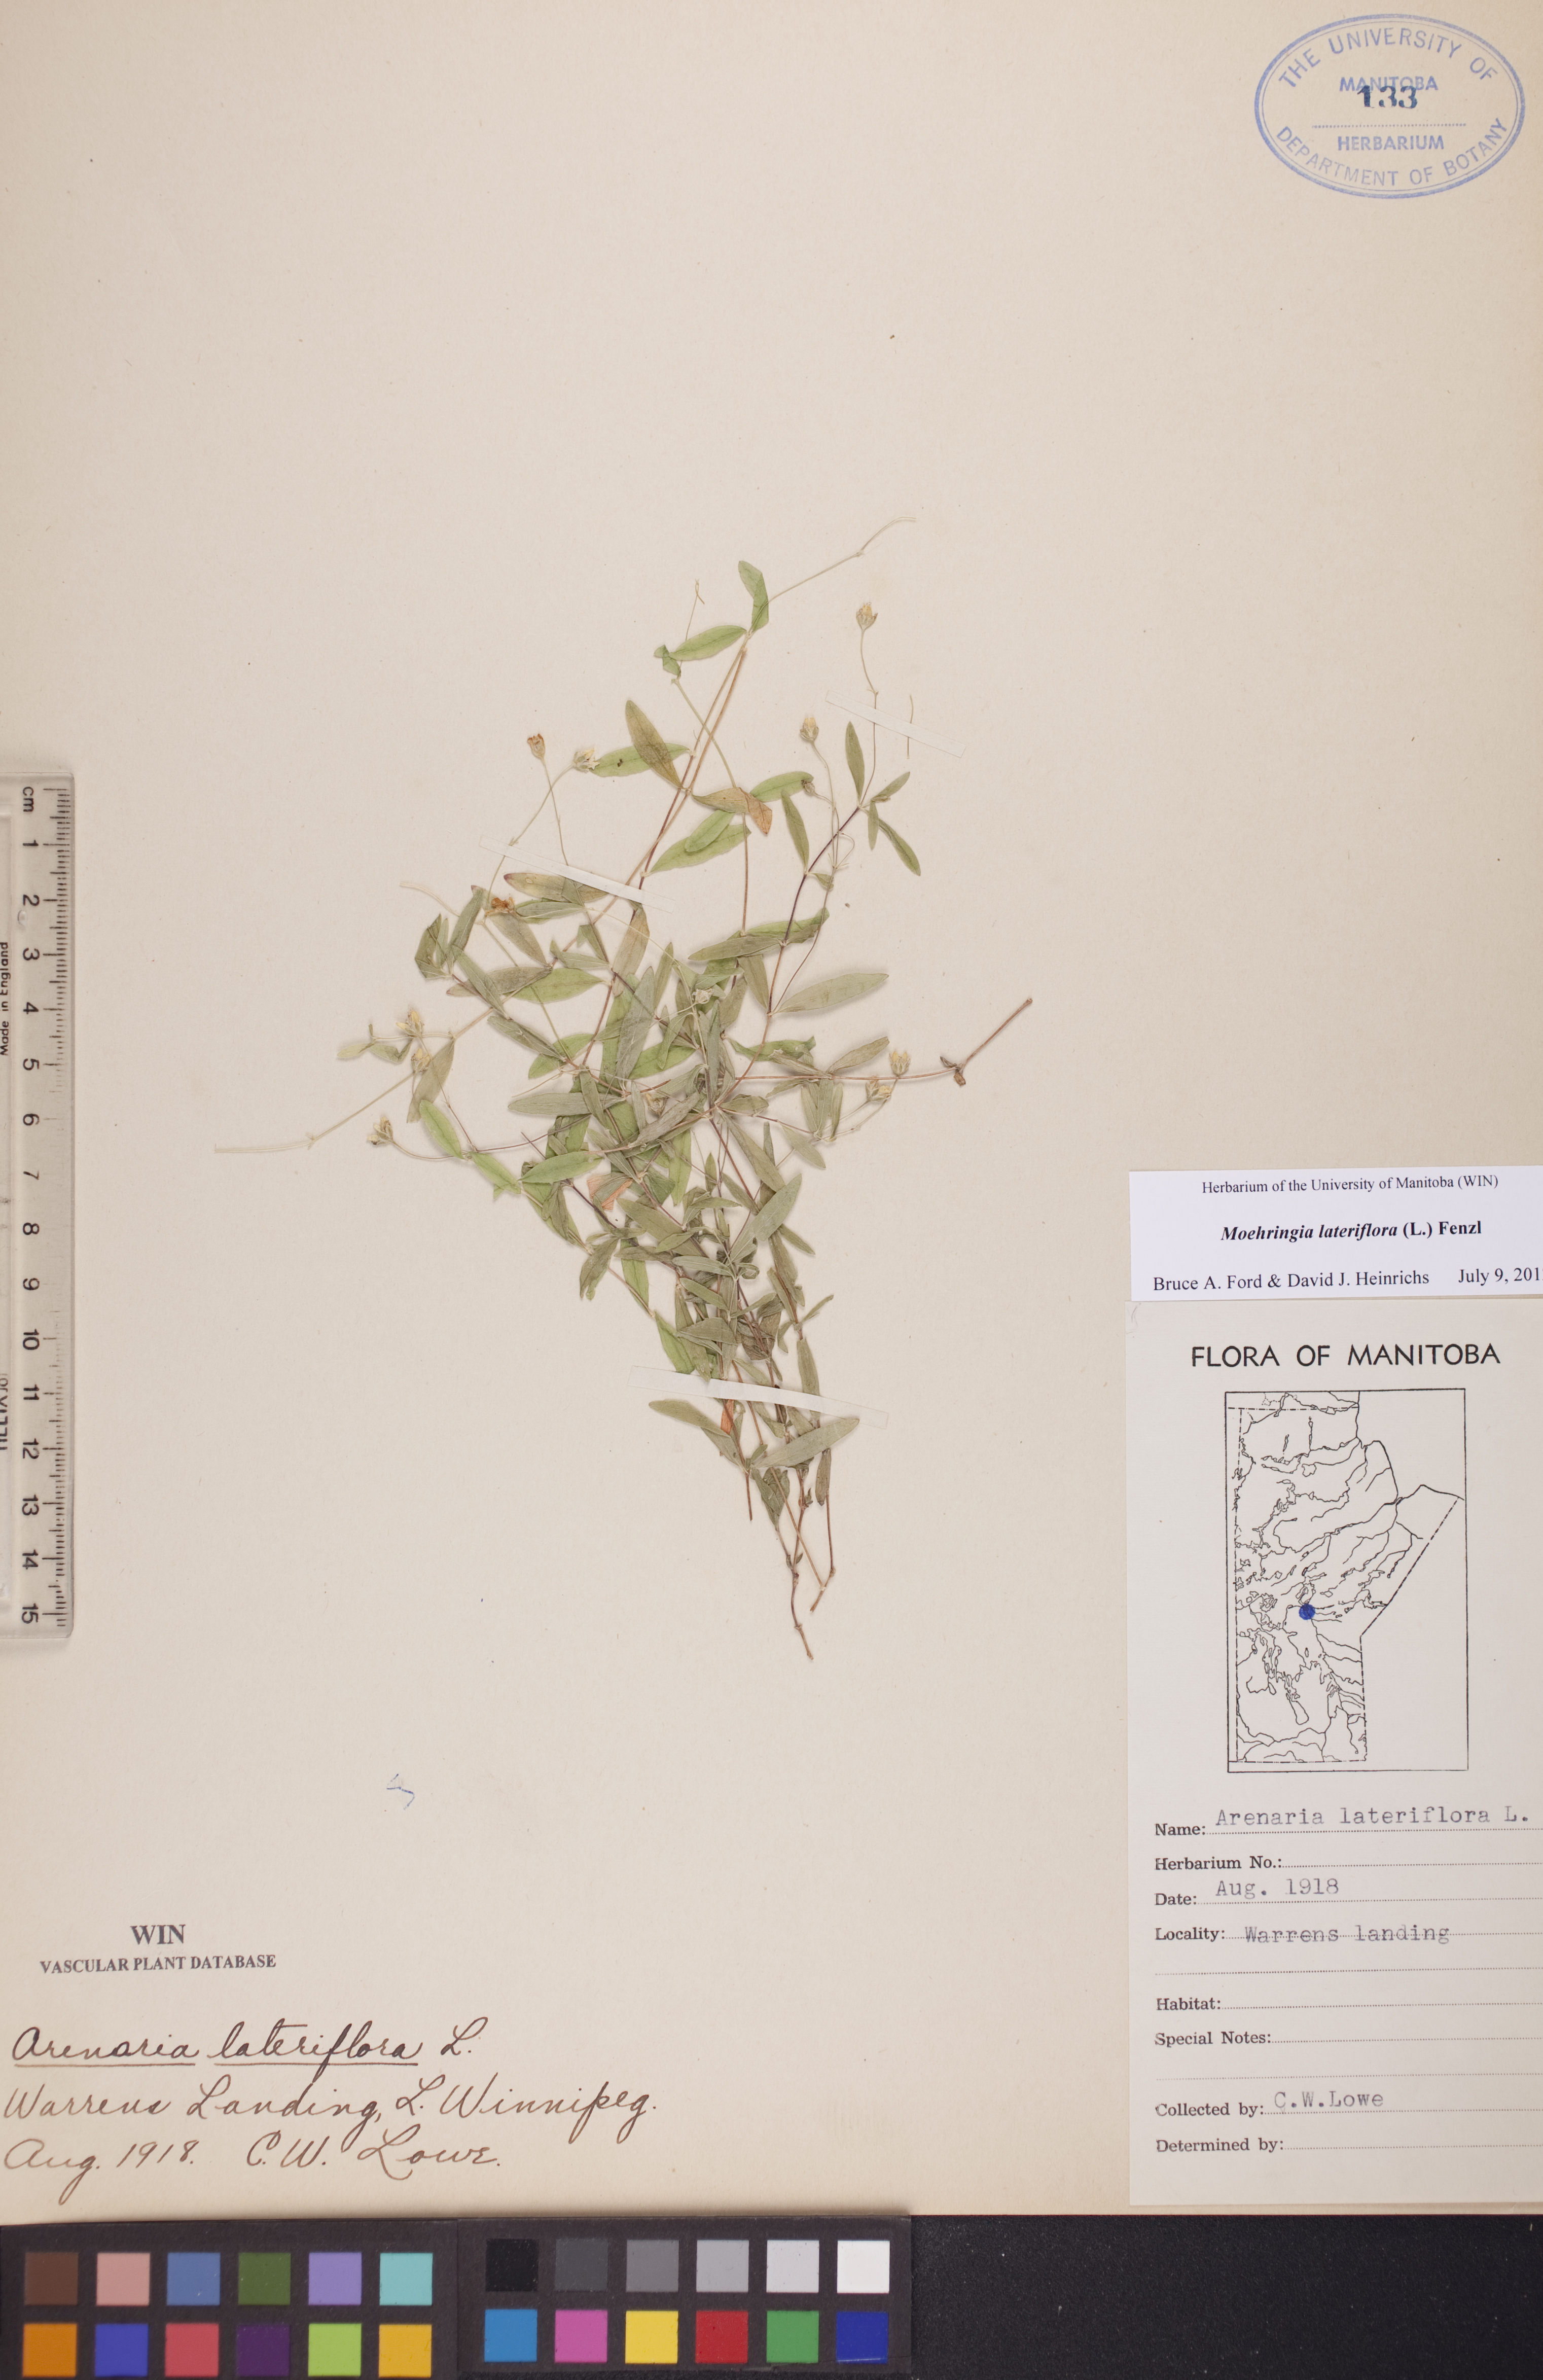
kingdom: Plantae
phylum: Tracheophyta
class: Magnoliopsida
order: Caryophyllales
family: Caryophyllaceae
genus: Moehringia
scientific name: Moehringia lateriflora
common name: Blunt-leaved sandwort
